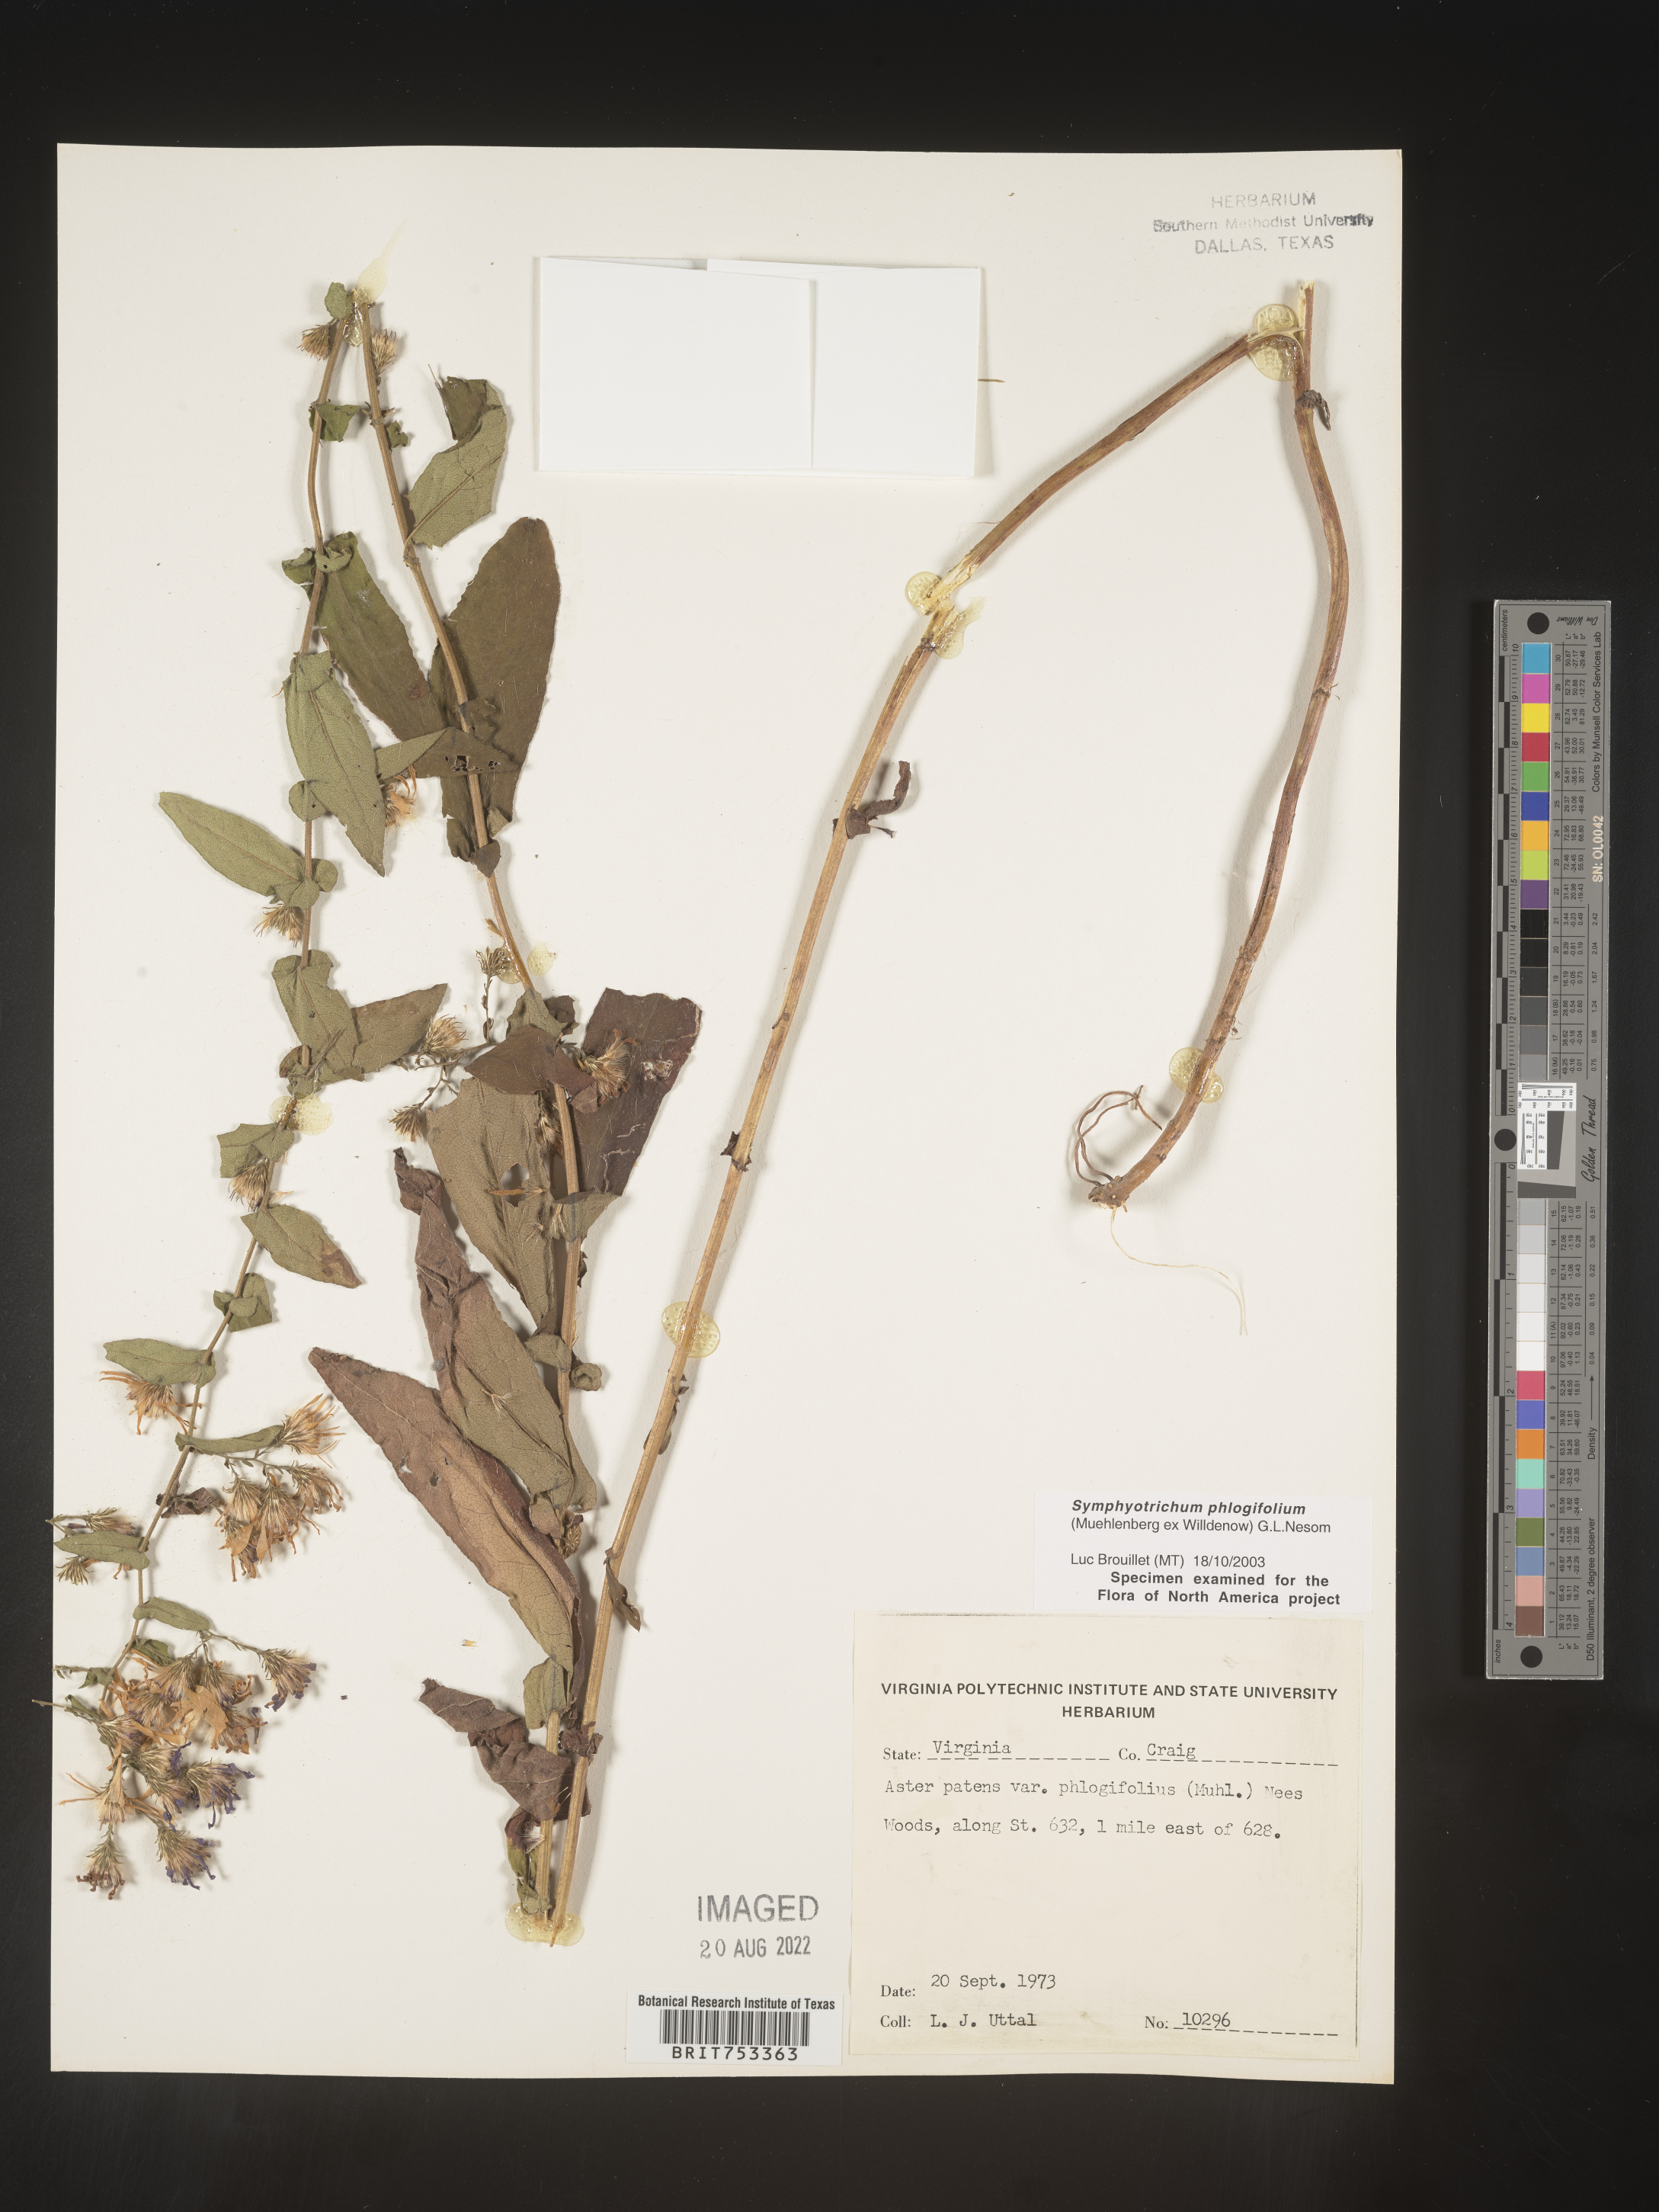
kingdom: Plantae
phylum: Tracheophyta
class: Magnoliopsida
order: Asterales
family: Asteraceae
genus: Symphyotrichum
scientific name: Symphyotrichum phlogifolium
